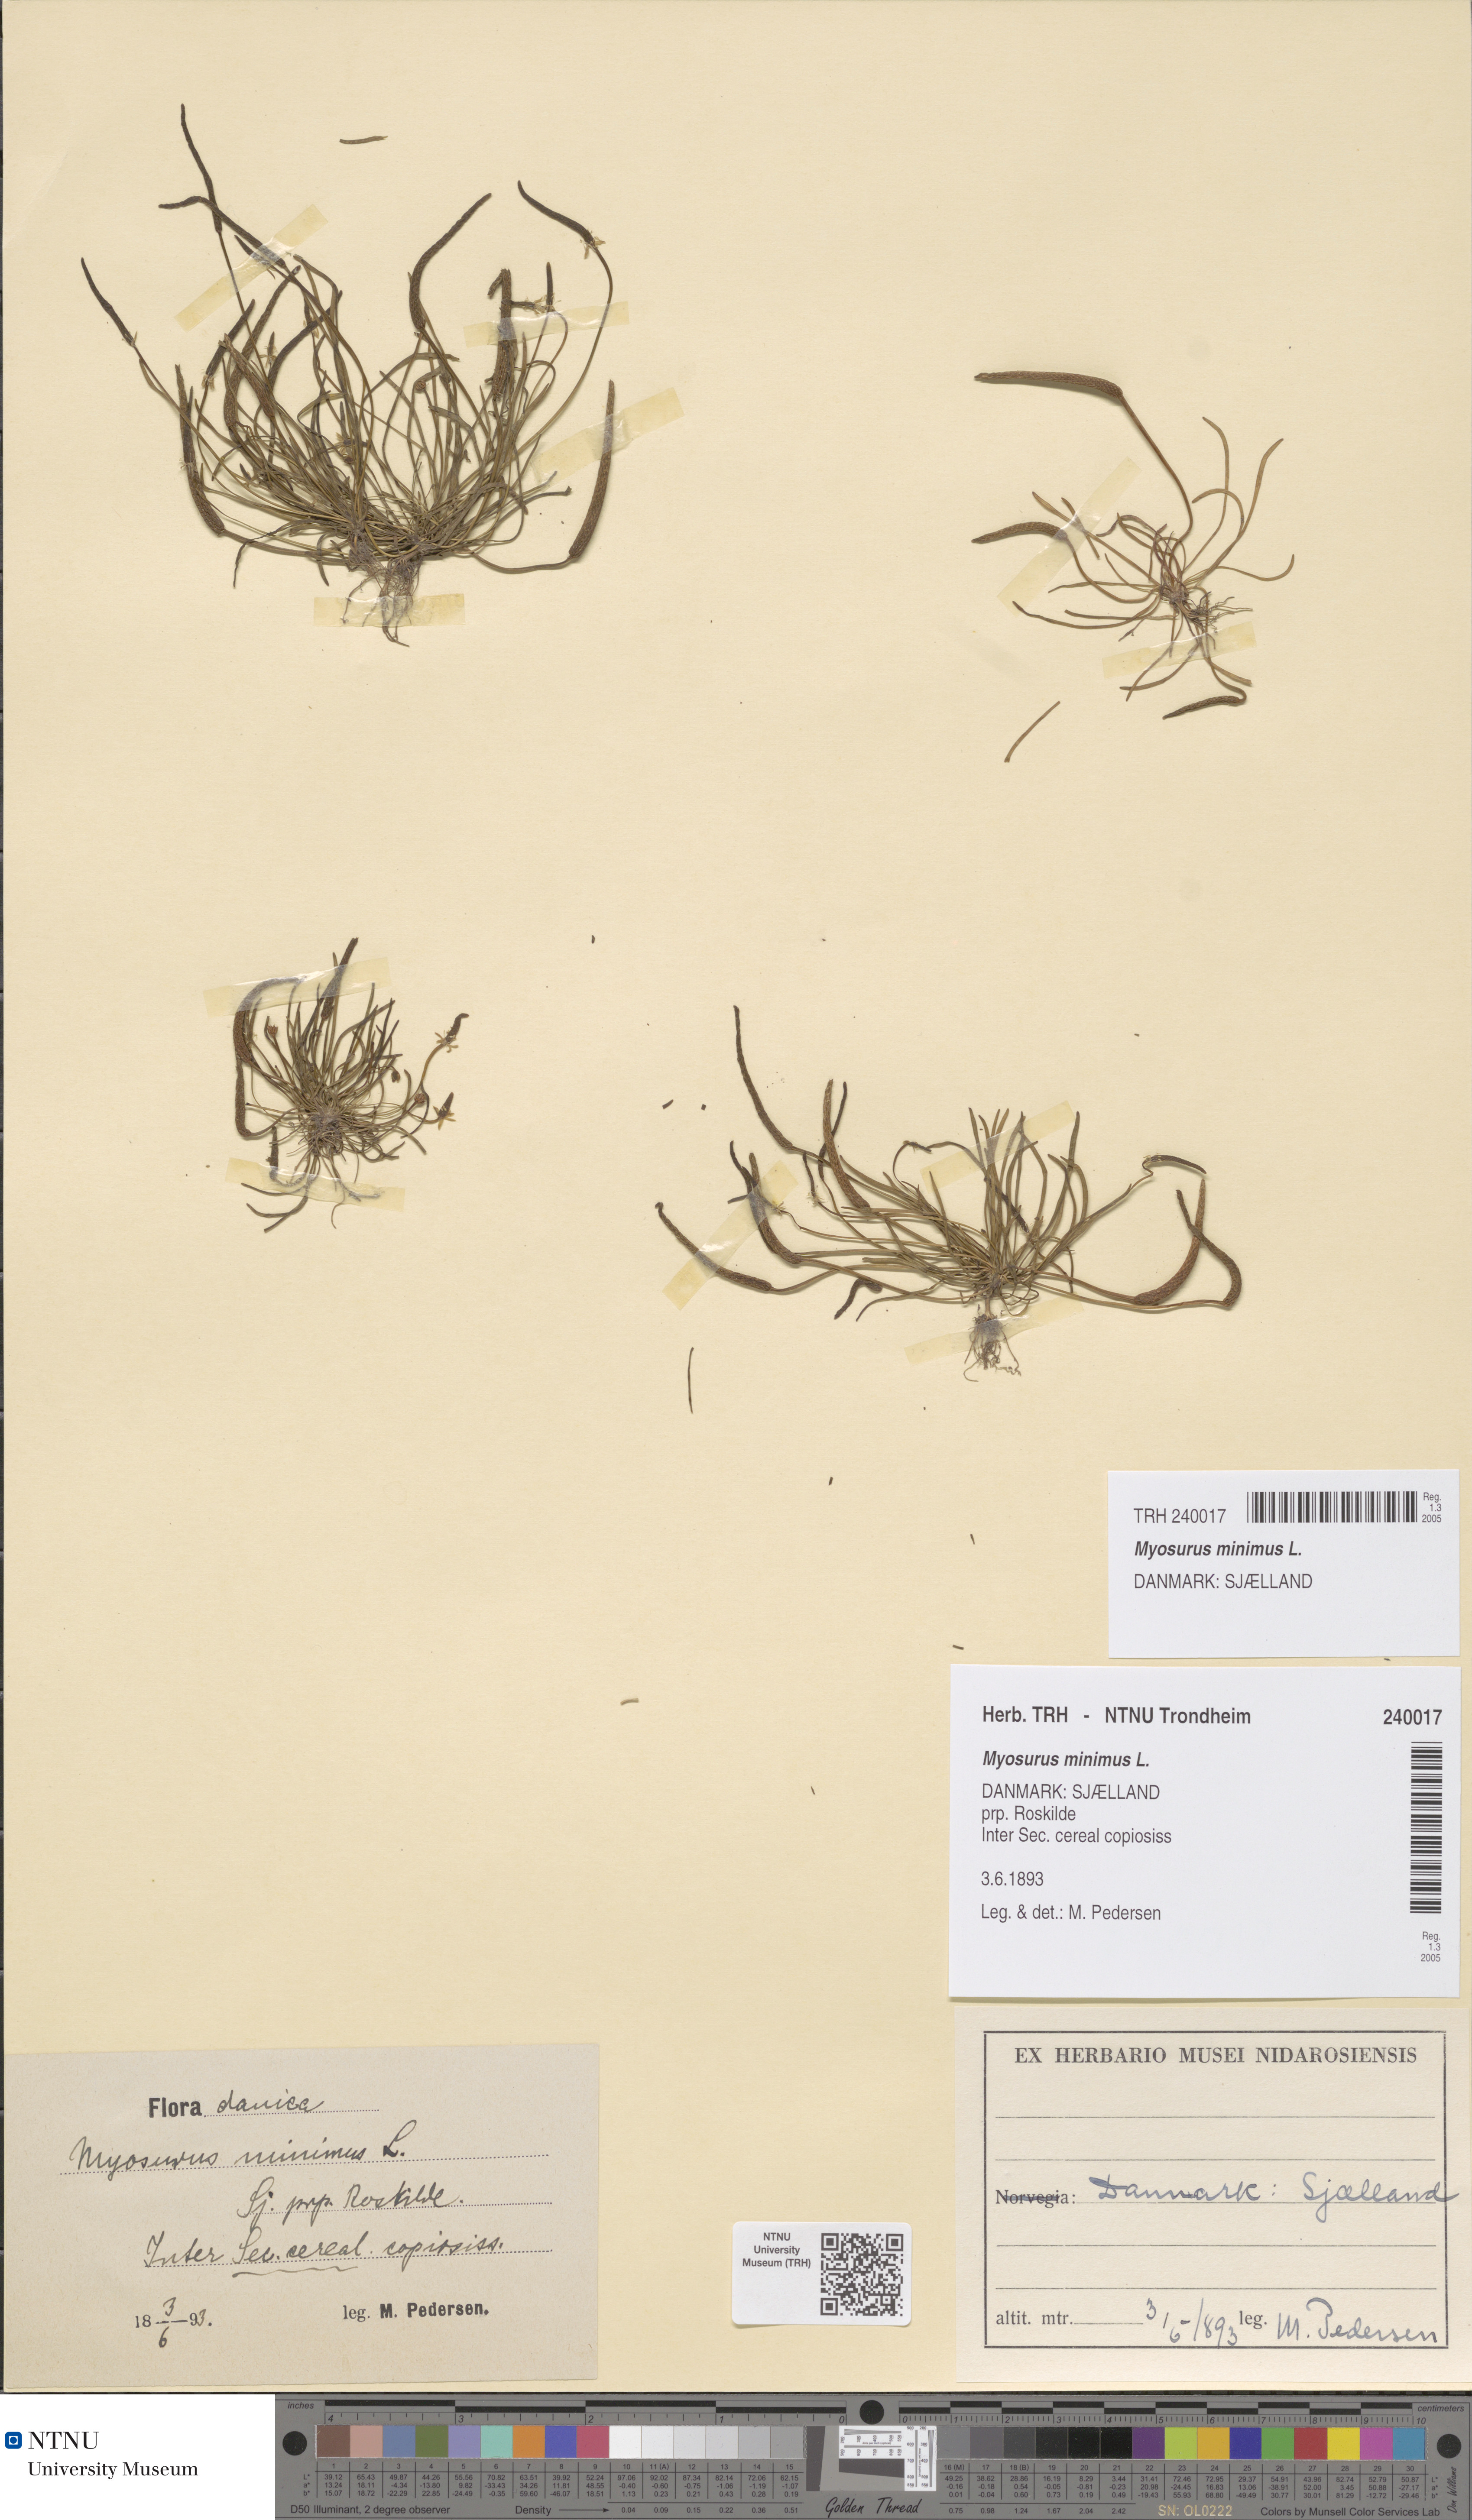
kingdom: Plantae
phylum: Tracheophyta
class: Magnoliopsida
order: Ranunculales
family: Ranunculaceae
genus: Myosurus
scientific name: Myosurus minimus
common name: Mousetail
